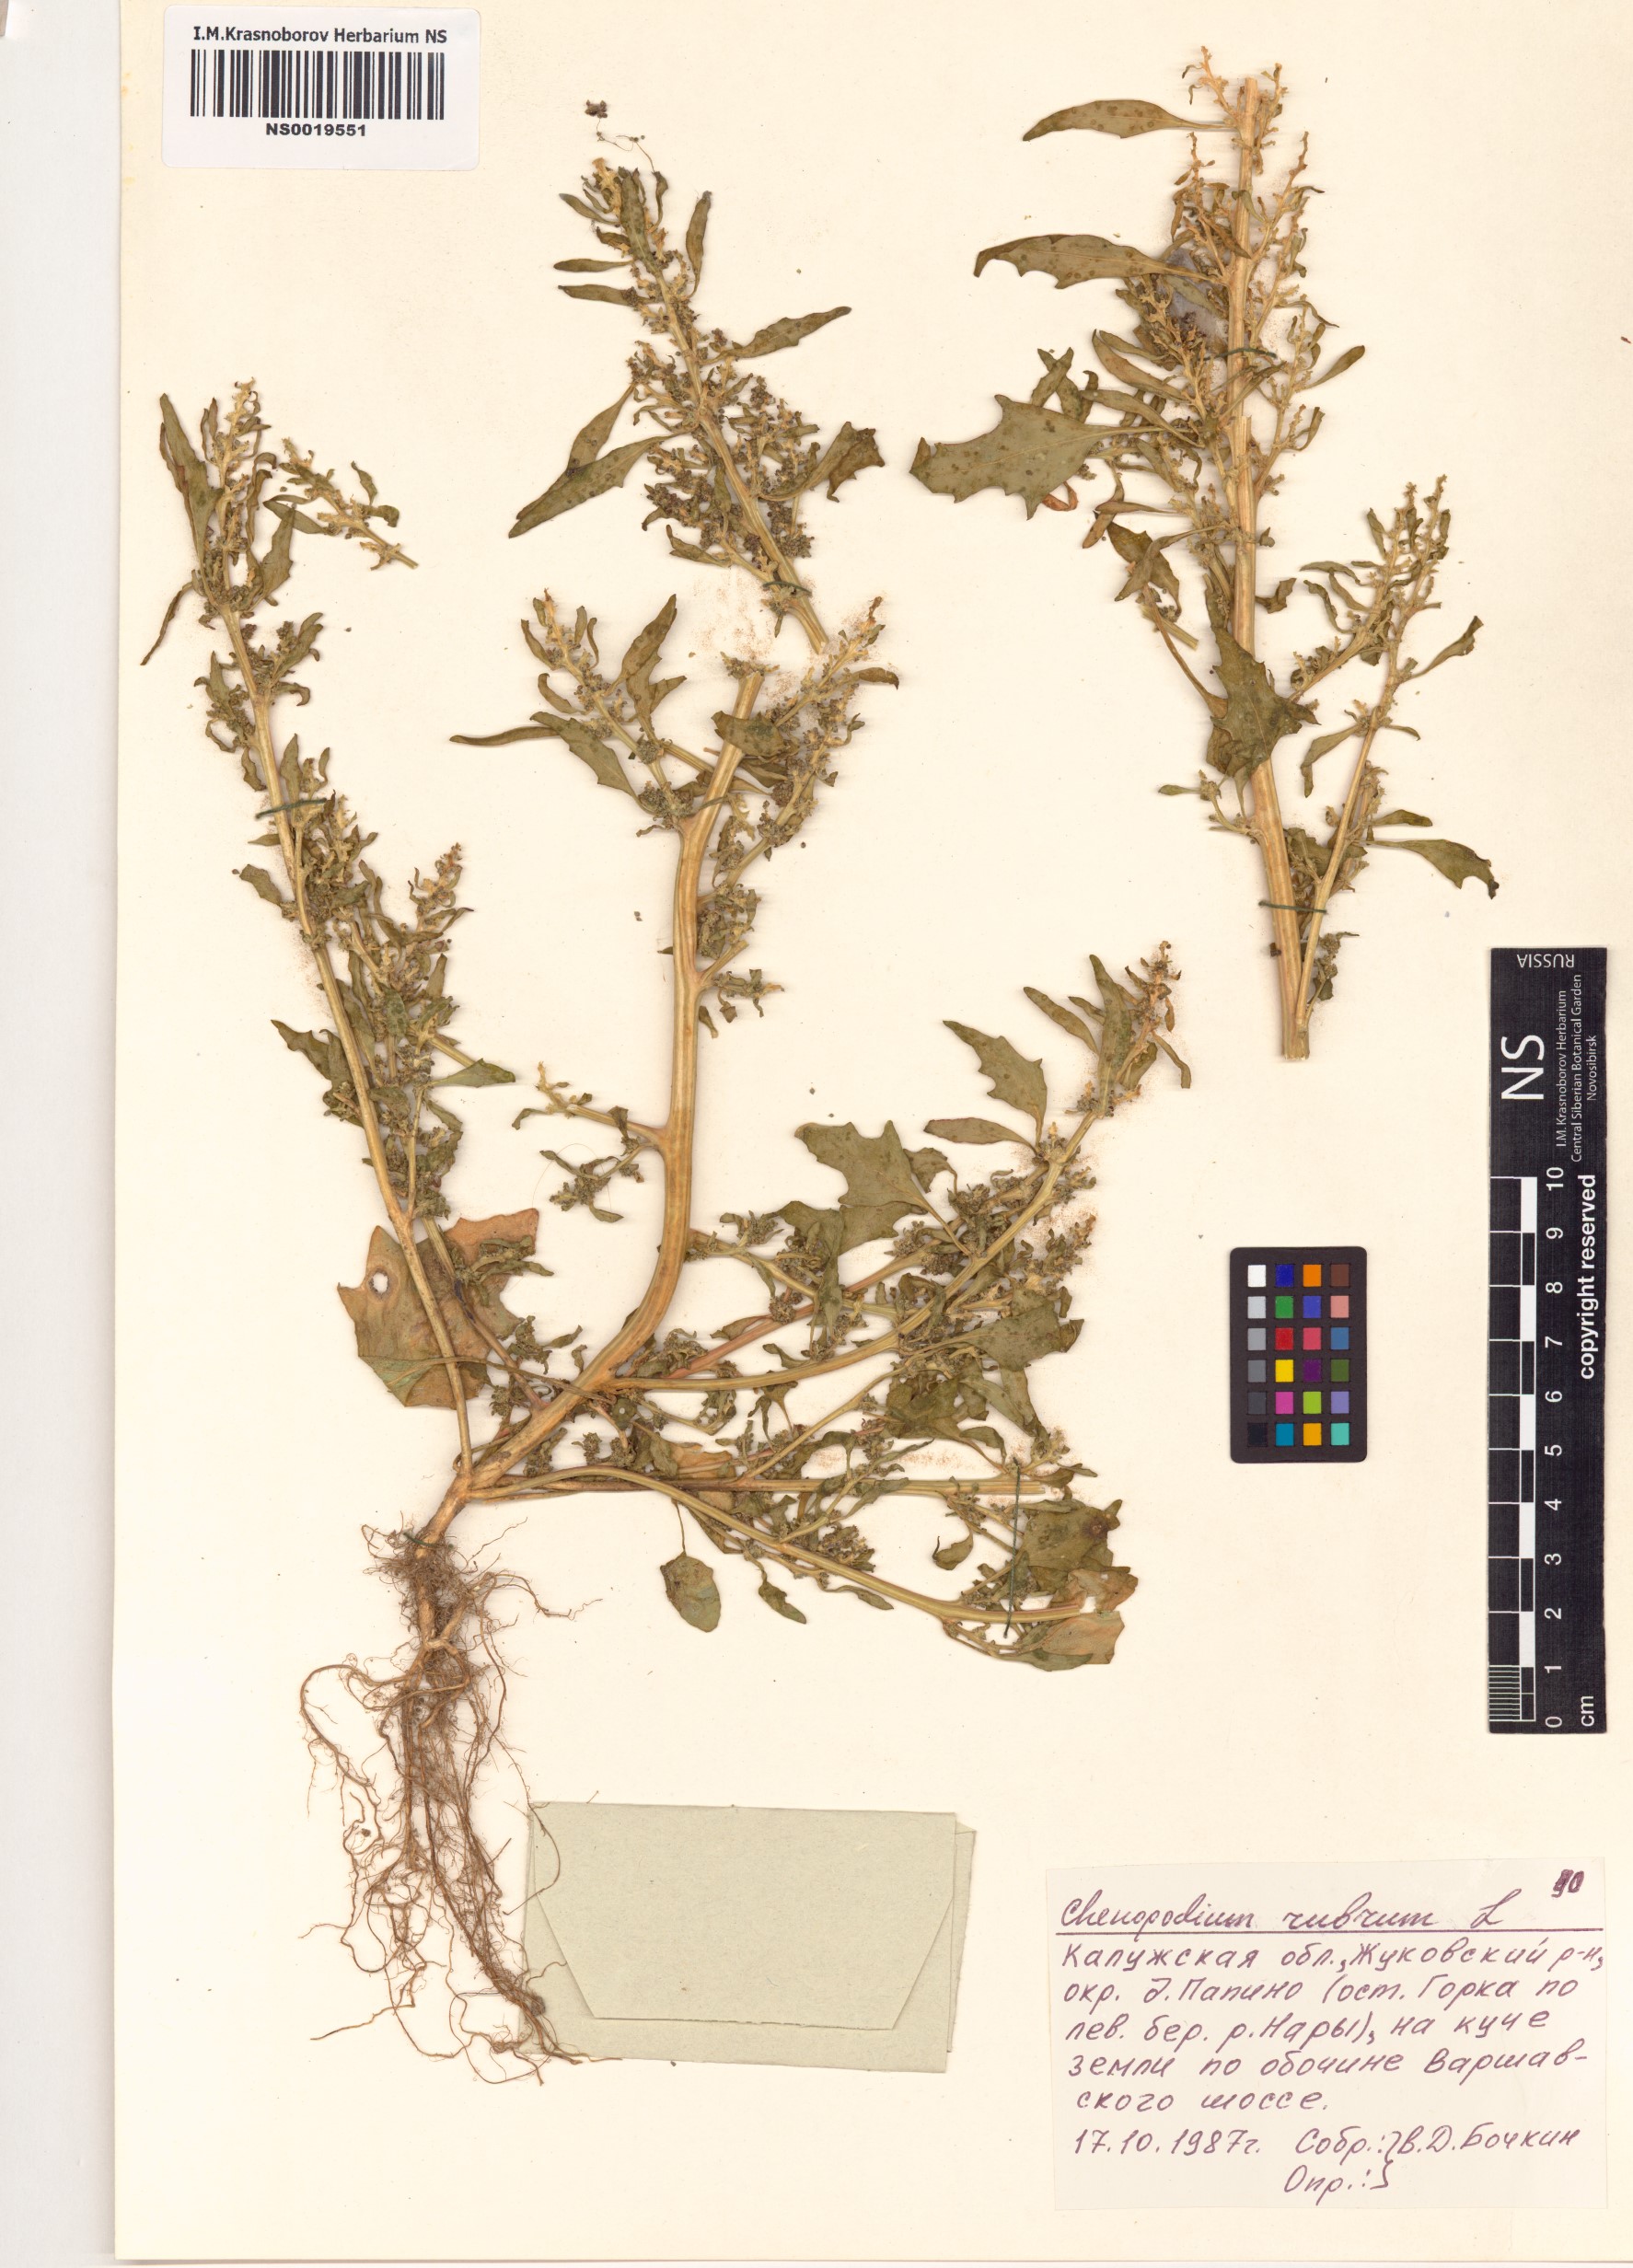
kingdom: Plantae
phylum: Tracheophyta
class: Magnoliopsida
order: Caryophyllales
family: Amaranthaceae
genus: Oxybasis
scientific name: Oxybasis rubra
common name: Red goosefoot
